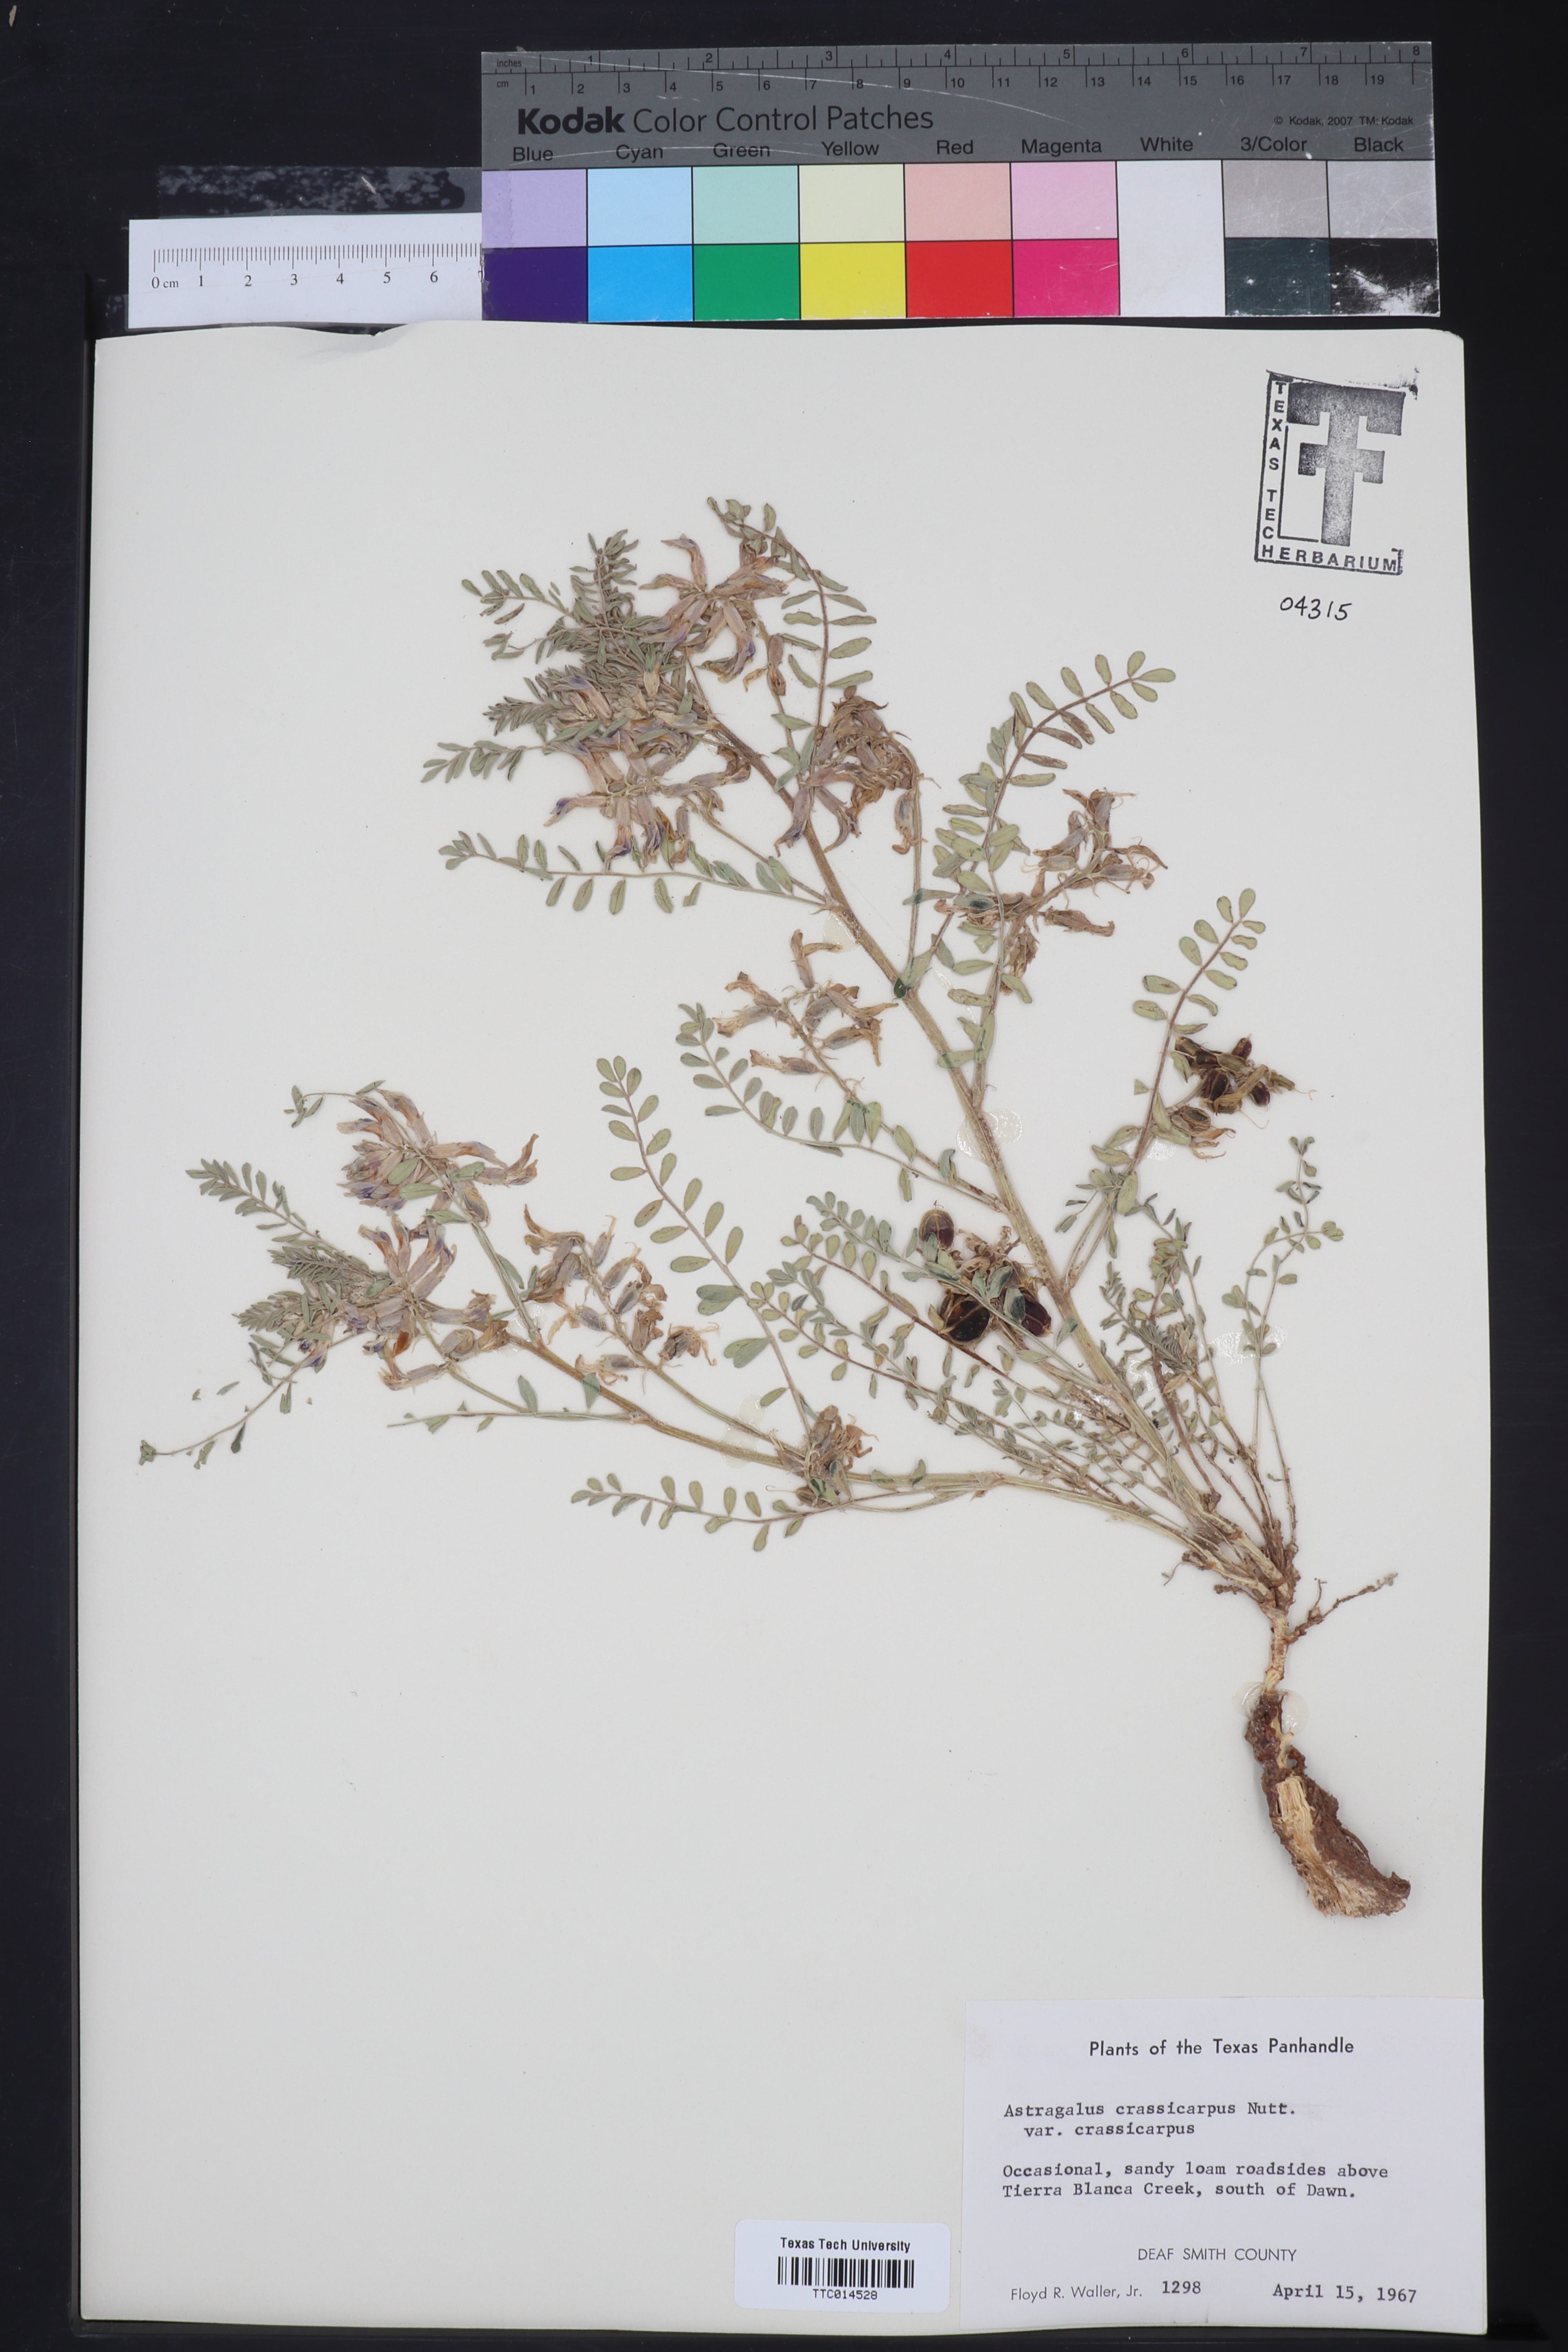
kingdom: Plantae
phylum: Tracheophyta
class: Magnoliopsida
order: Fabales
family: Fabaceae
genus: Astragalus
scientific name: Astragalus crassicarpus
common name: Ground-plum milk-vetch
